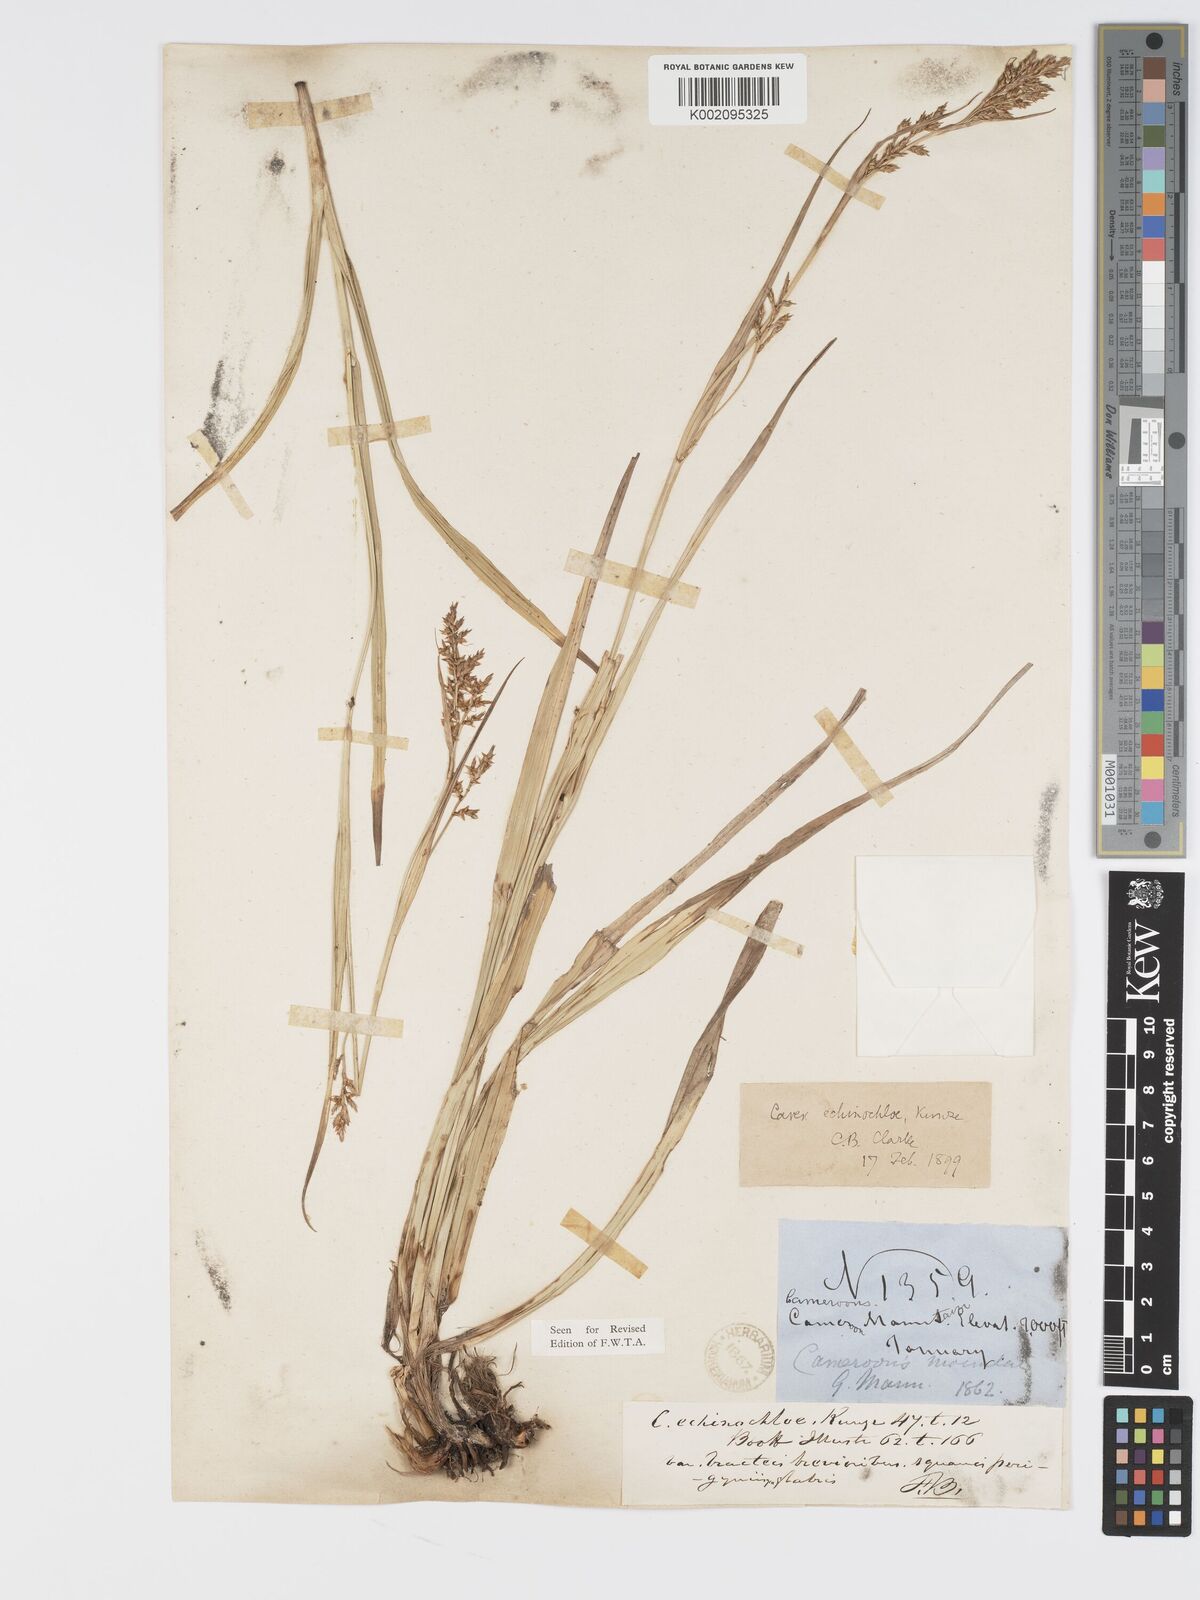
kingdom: Plantae
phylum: Tracheophyta
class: Liliopsida
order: Poales
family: Cyperaceae
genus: Carex
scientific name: Carex echinochloe
